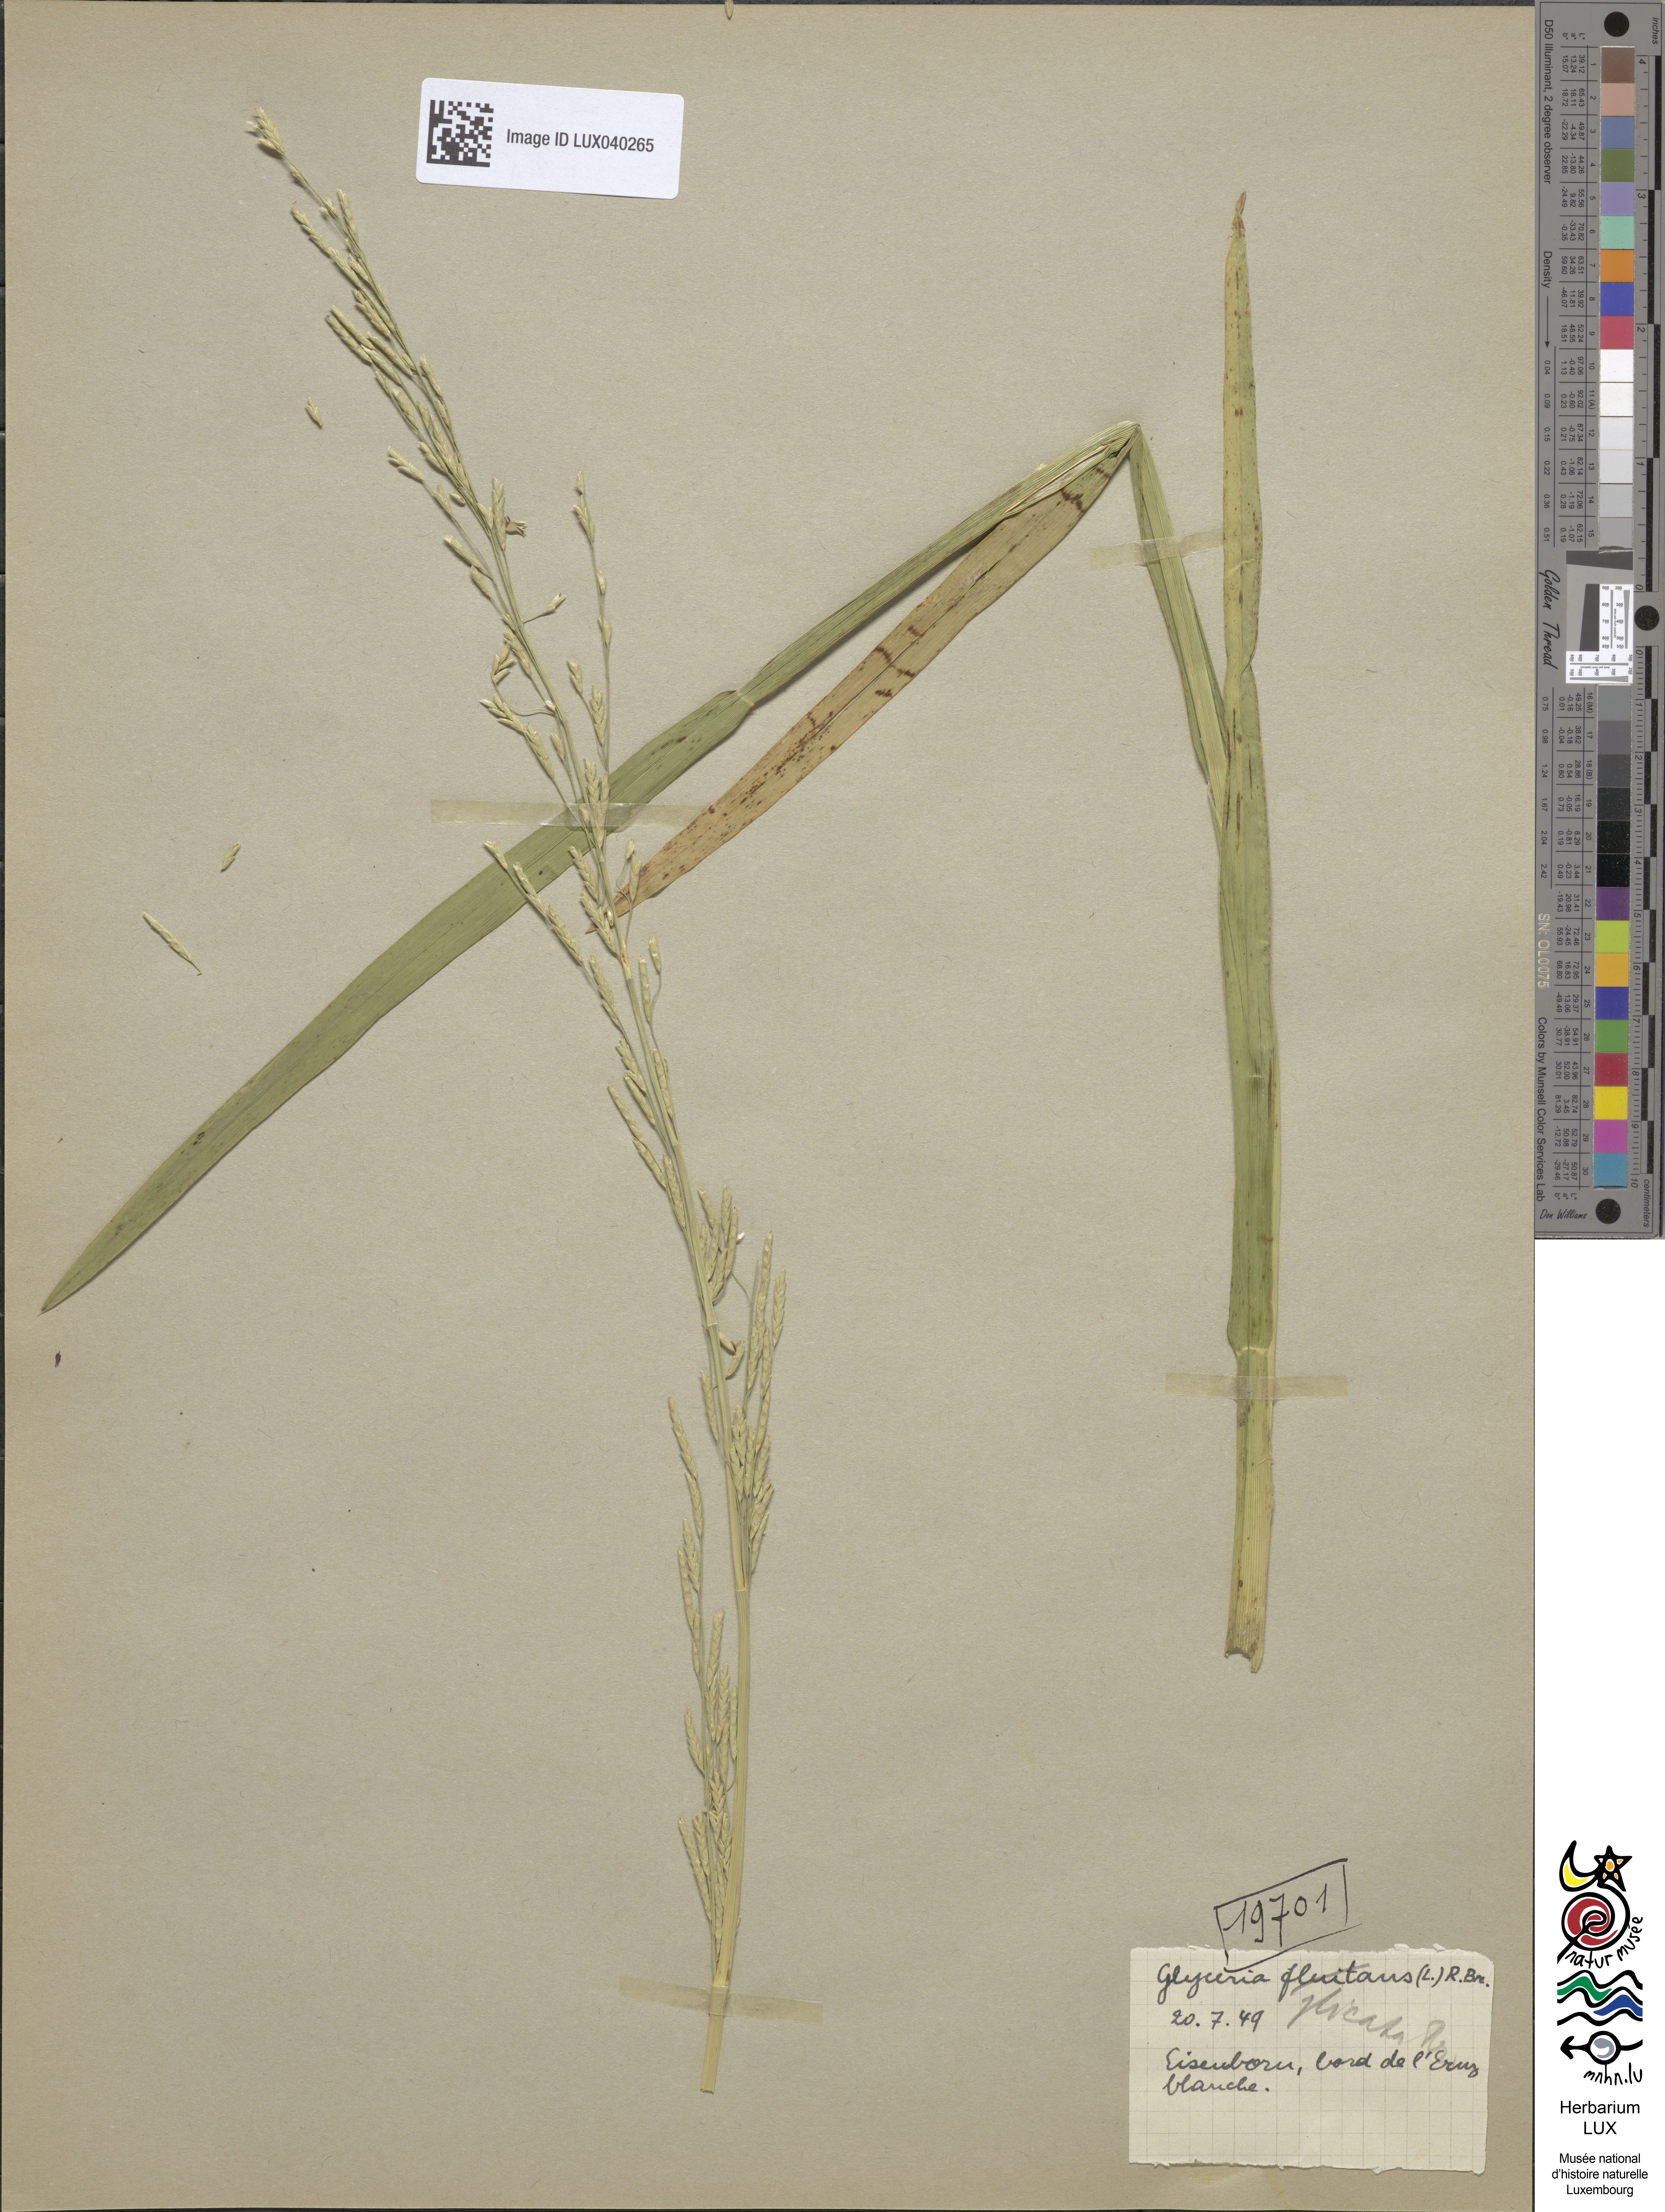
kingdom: Plantae
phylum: Tracheophyta
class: Liliopsida
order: Poales
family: Poaceae
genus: Glyceria
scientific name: Glyceria notata
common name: Plicate sweet-grass
